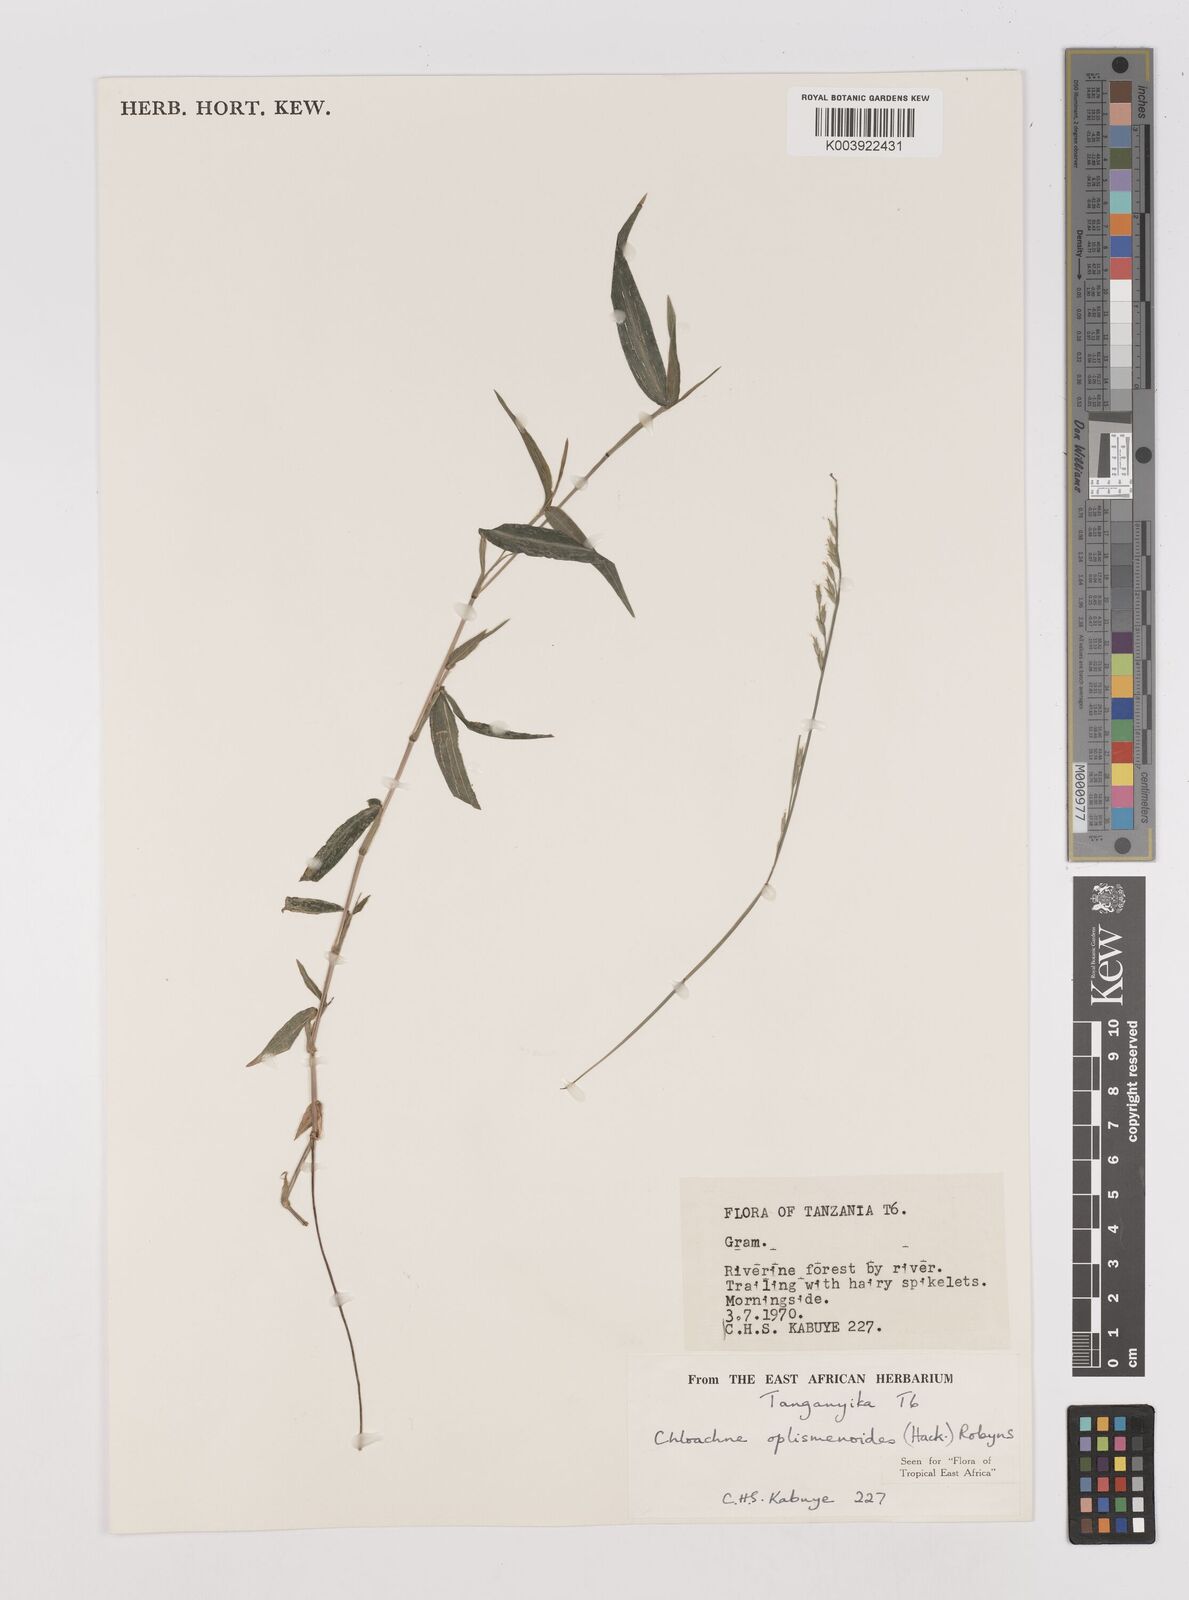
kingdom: Plantae
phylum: Tracheophyta
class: Liliopsida
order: Poales
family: Poaceae
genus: Poecilostachys
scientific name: Poecilostachys oplismenoides
